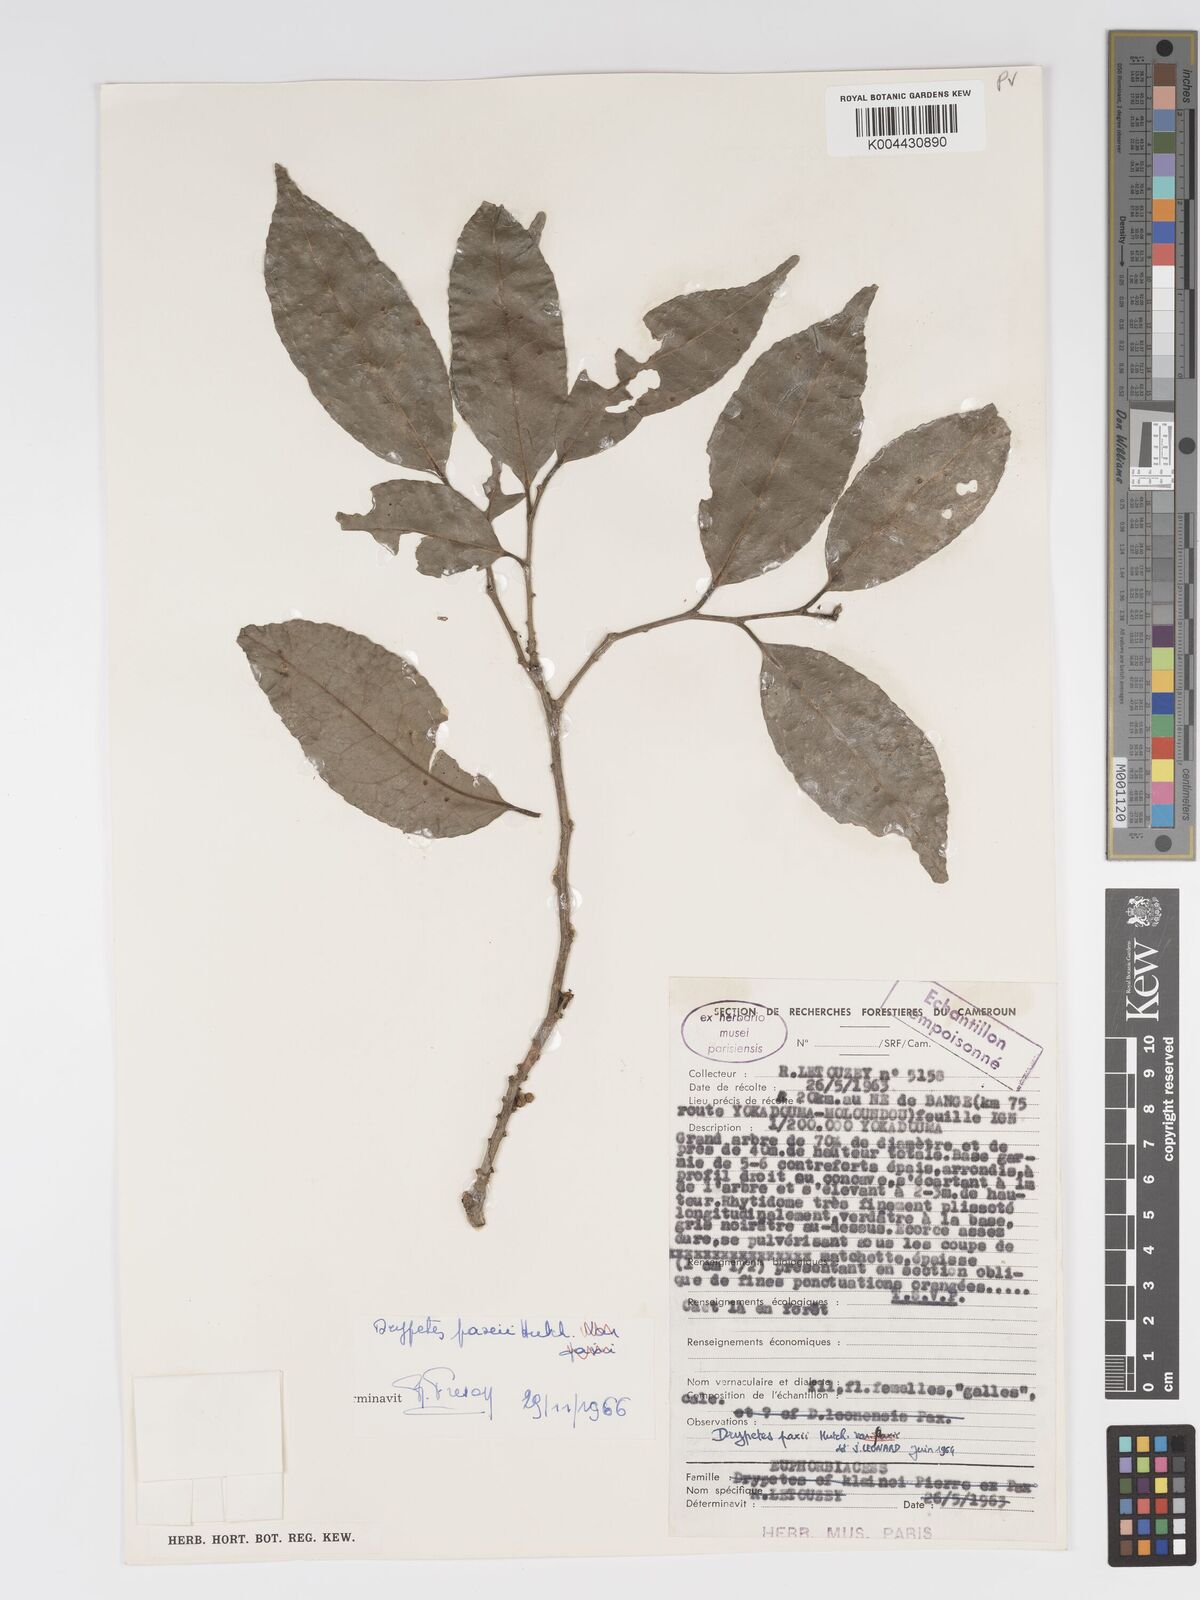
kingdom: Plantae
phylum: Tracheophyta
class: Magnoliopsida
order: Malpighiales
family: Putranjivaceae
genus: Drypetes
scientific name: Drypetes paxii
